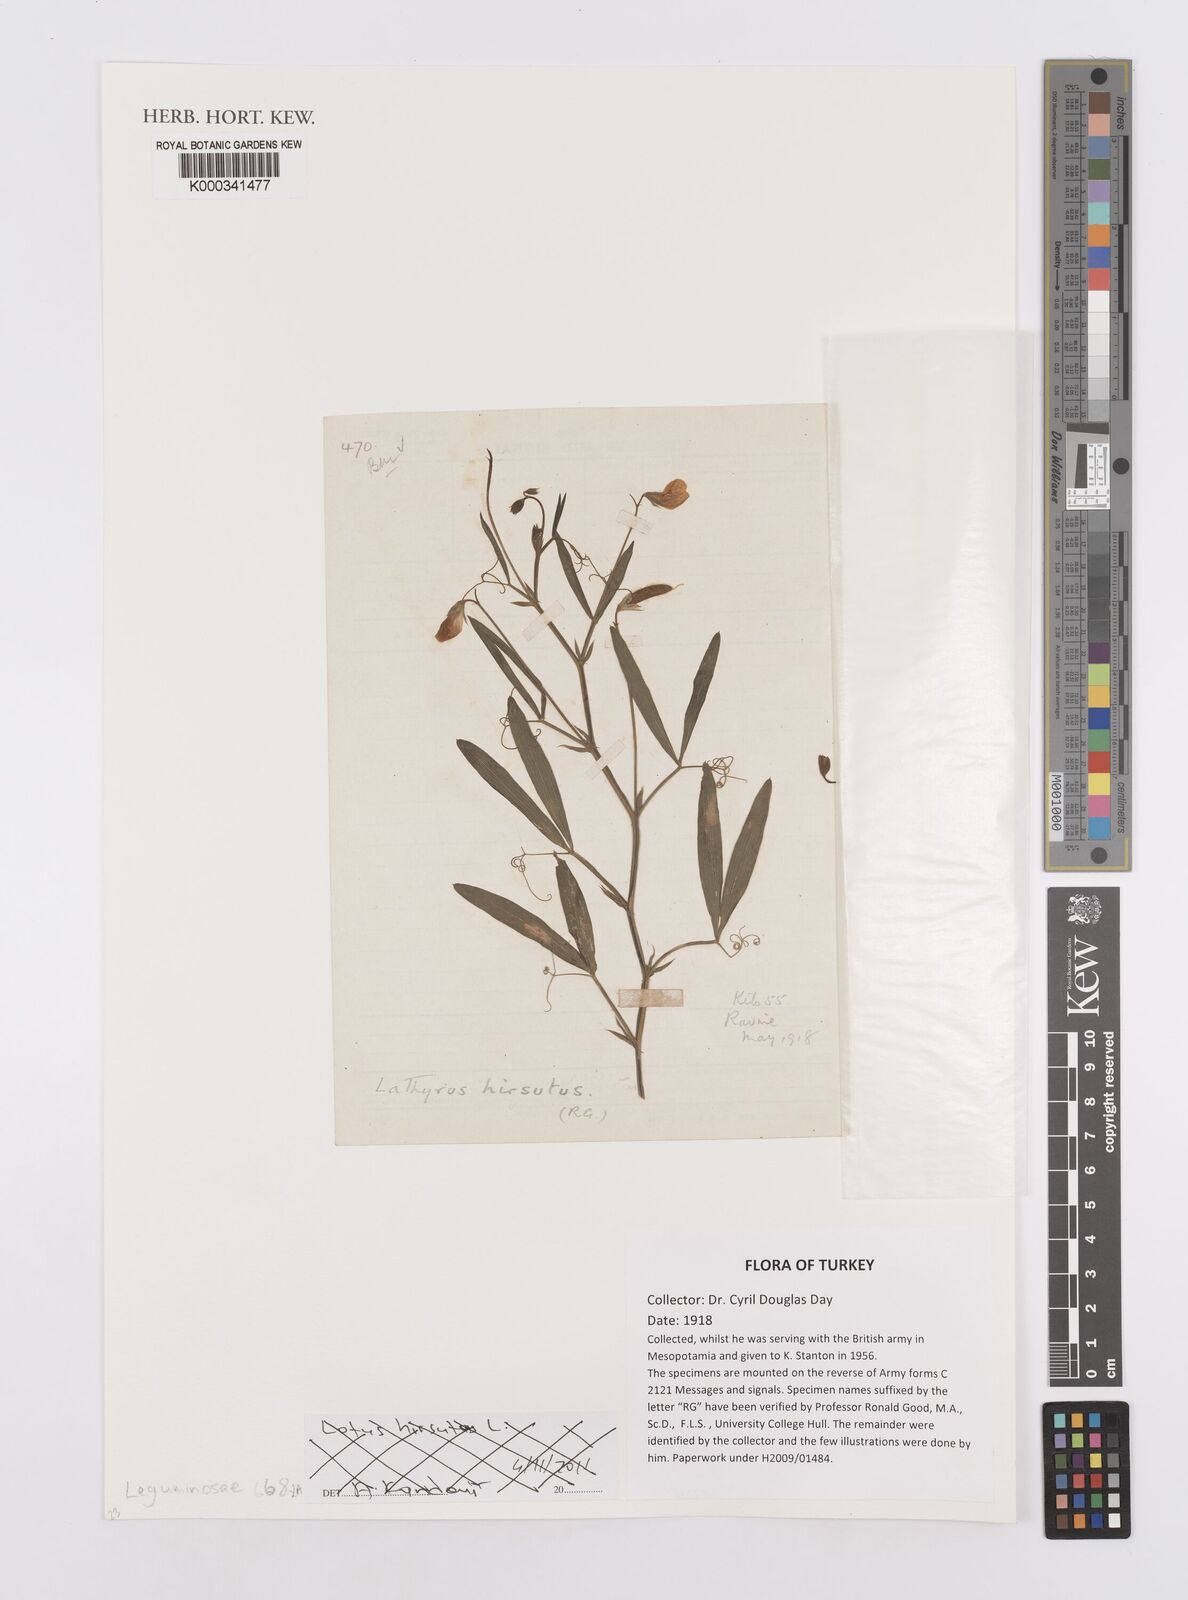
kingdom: Plantae
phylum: Tracheophyta
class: Magnoliopsida
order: Fabales
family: Fabaceae
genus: Lotus
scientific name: Lotus hirsutus
